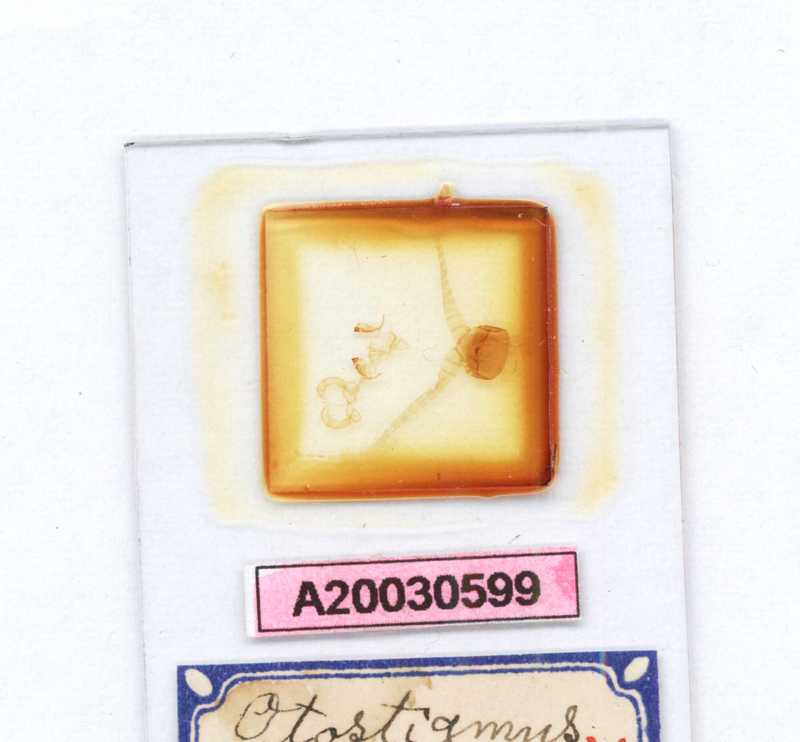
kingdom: Animalia
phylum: Arthropoda
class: Chilopoda
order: Scolopendromorpha
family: Scolopendridae
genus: Otostigmus
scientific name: Otostigmus striolatus
